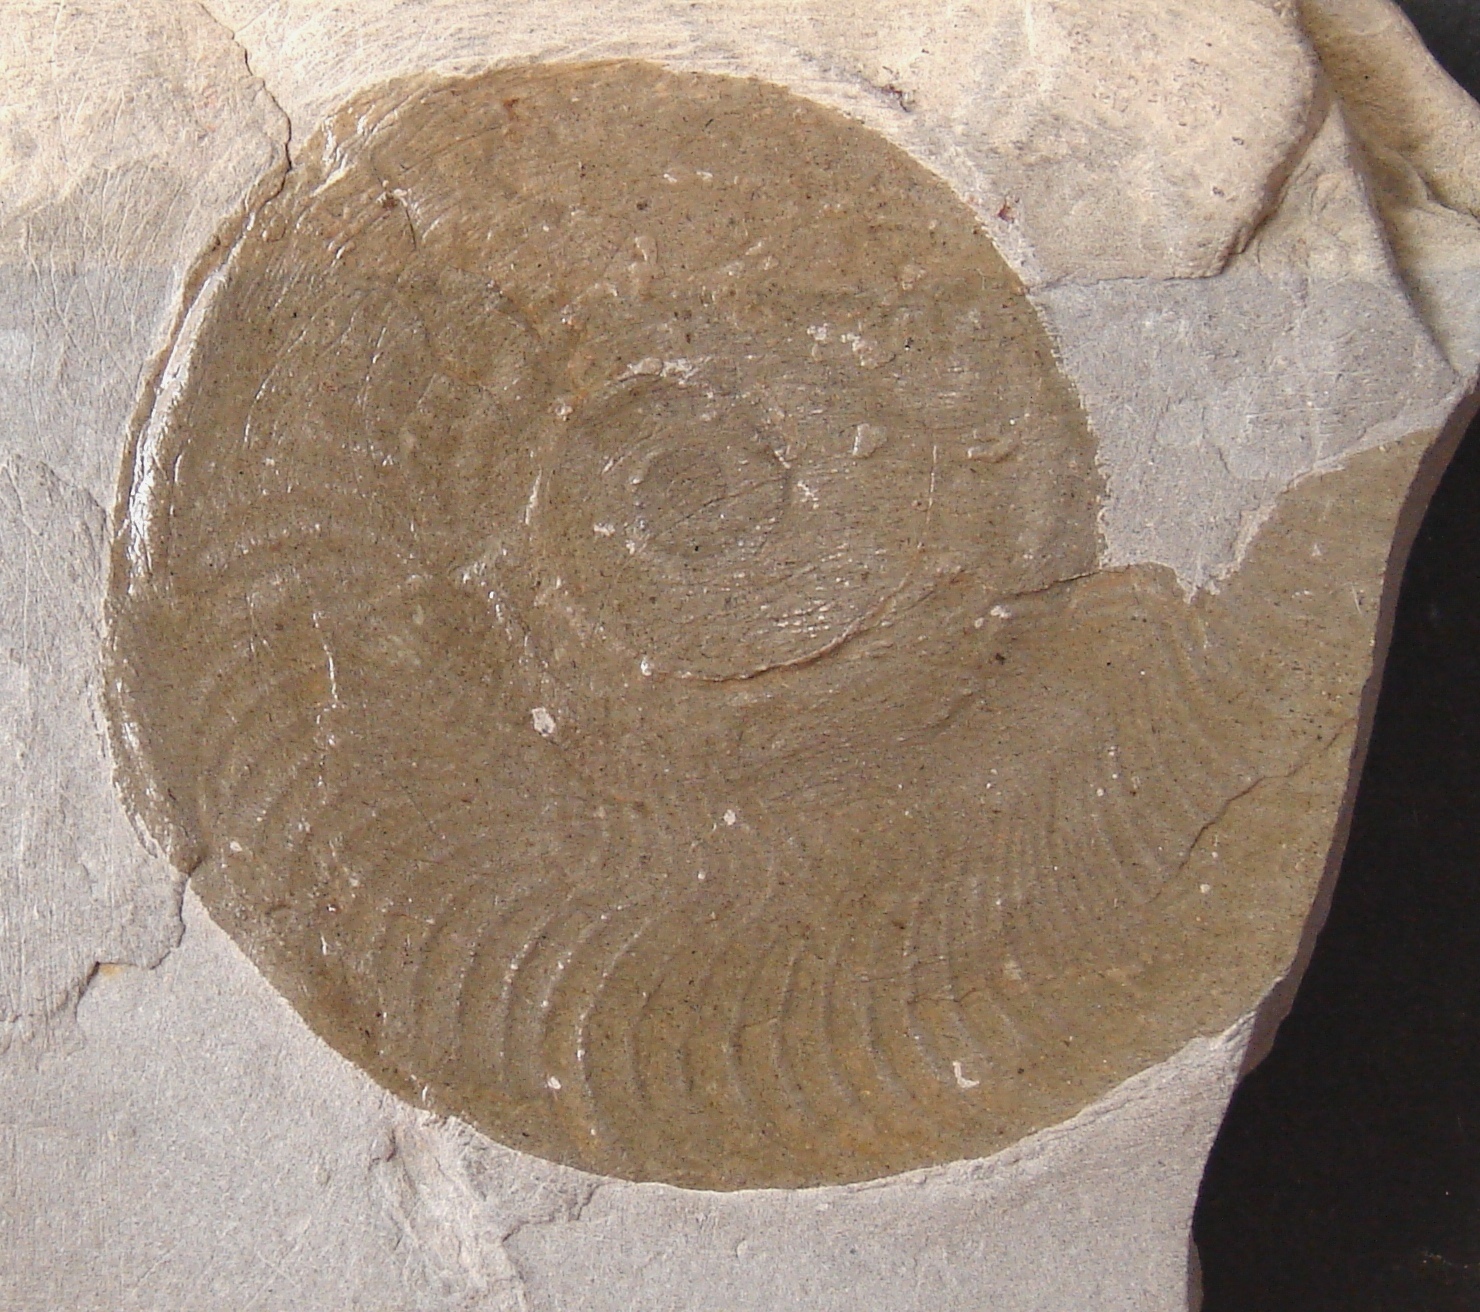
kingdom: Animalia
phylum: Mollusca
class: Cephalopoda
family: Hildoceratidae
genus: Harpoceras
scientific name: Harpoceras falciferum
